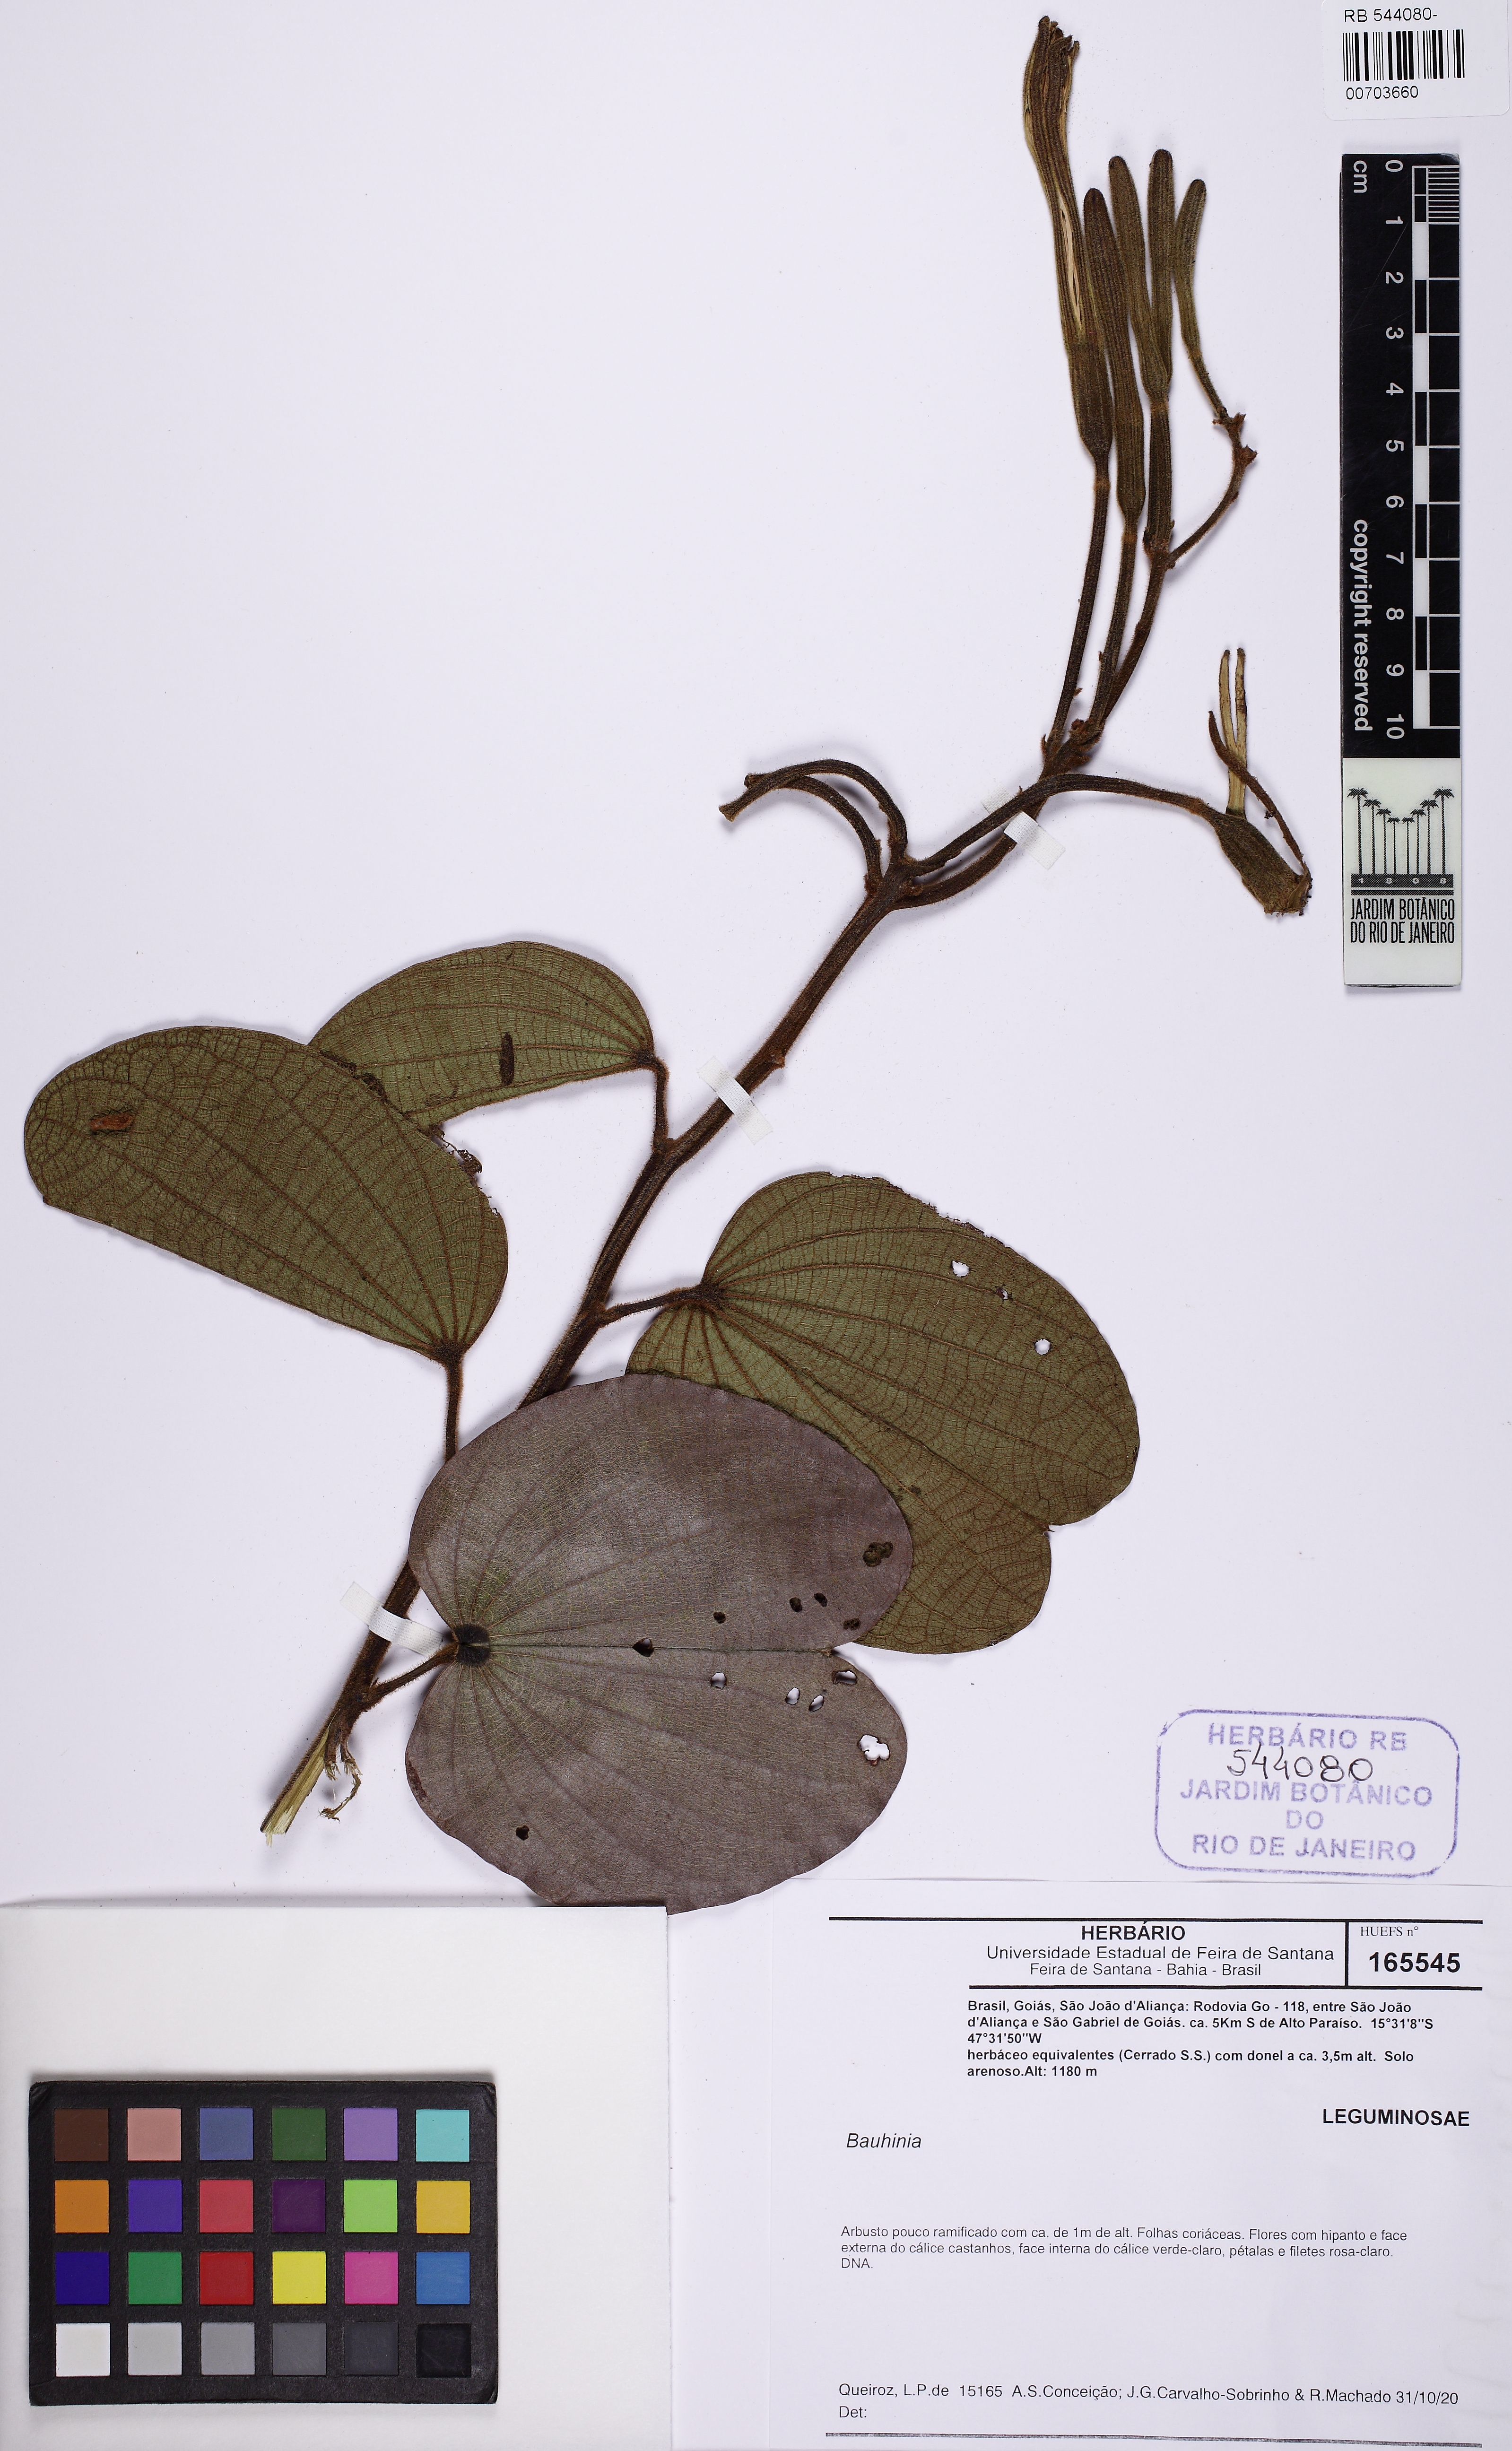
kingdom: Plantae
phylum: Tracheophyta
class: Magnoliopsida
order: Fabales
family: Fabaceae
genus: Bauhinia
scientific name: Bauhinia
